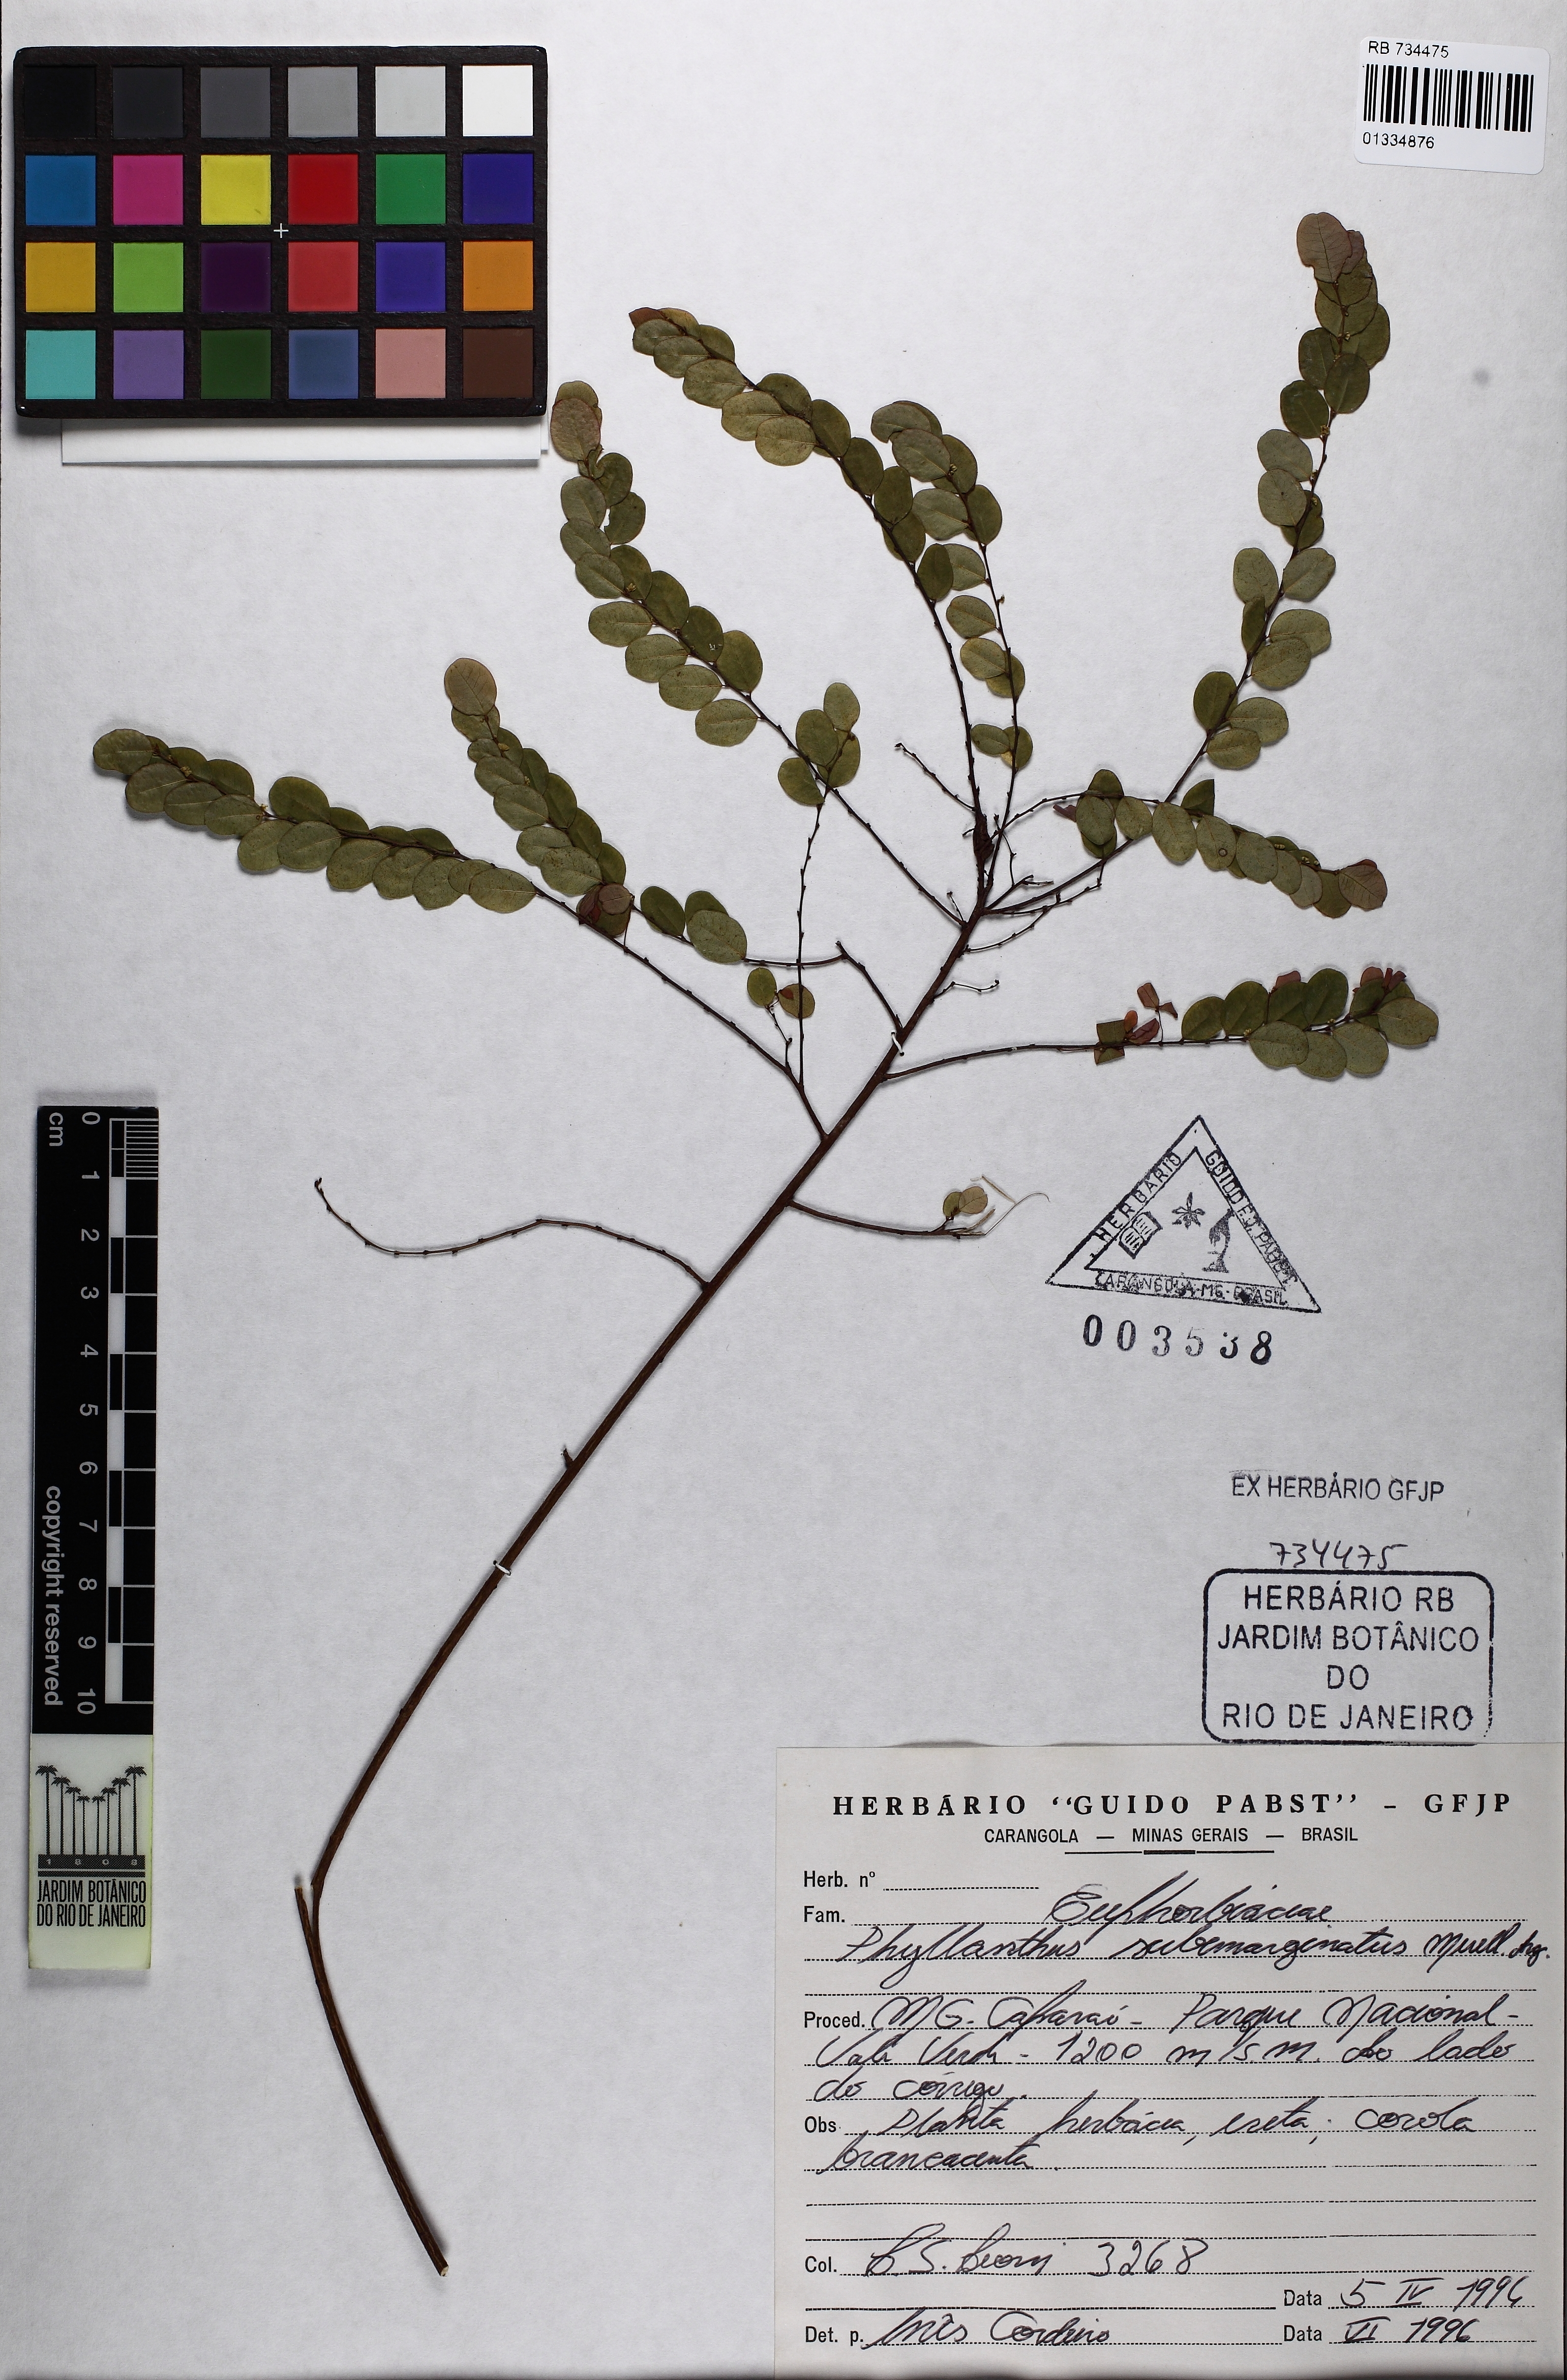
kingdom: Plantae
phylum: Tracheophyta
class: Magnoliopsida
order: Malpighiales
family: Phyllanthaceae
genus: Phyllanthus
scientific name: Phyllanthus subemarginatus
